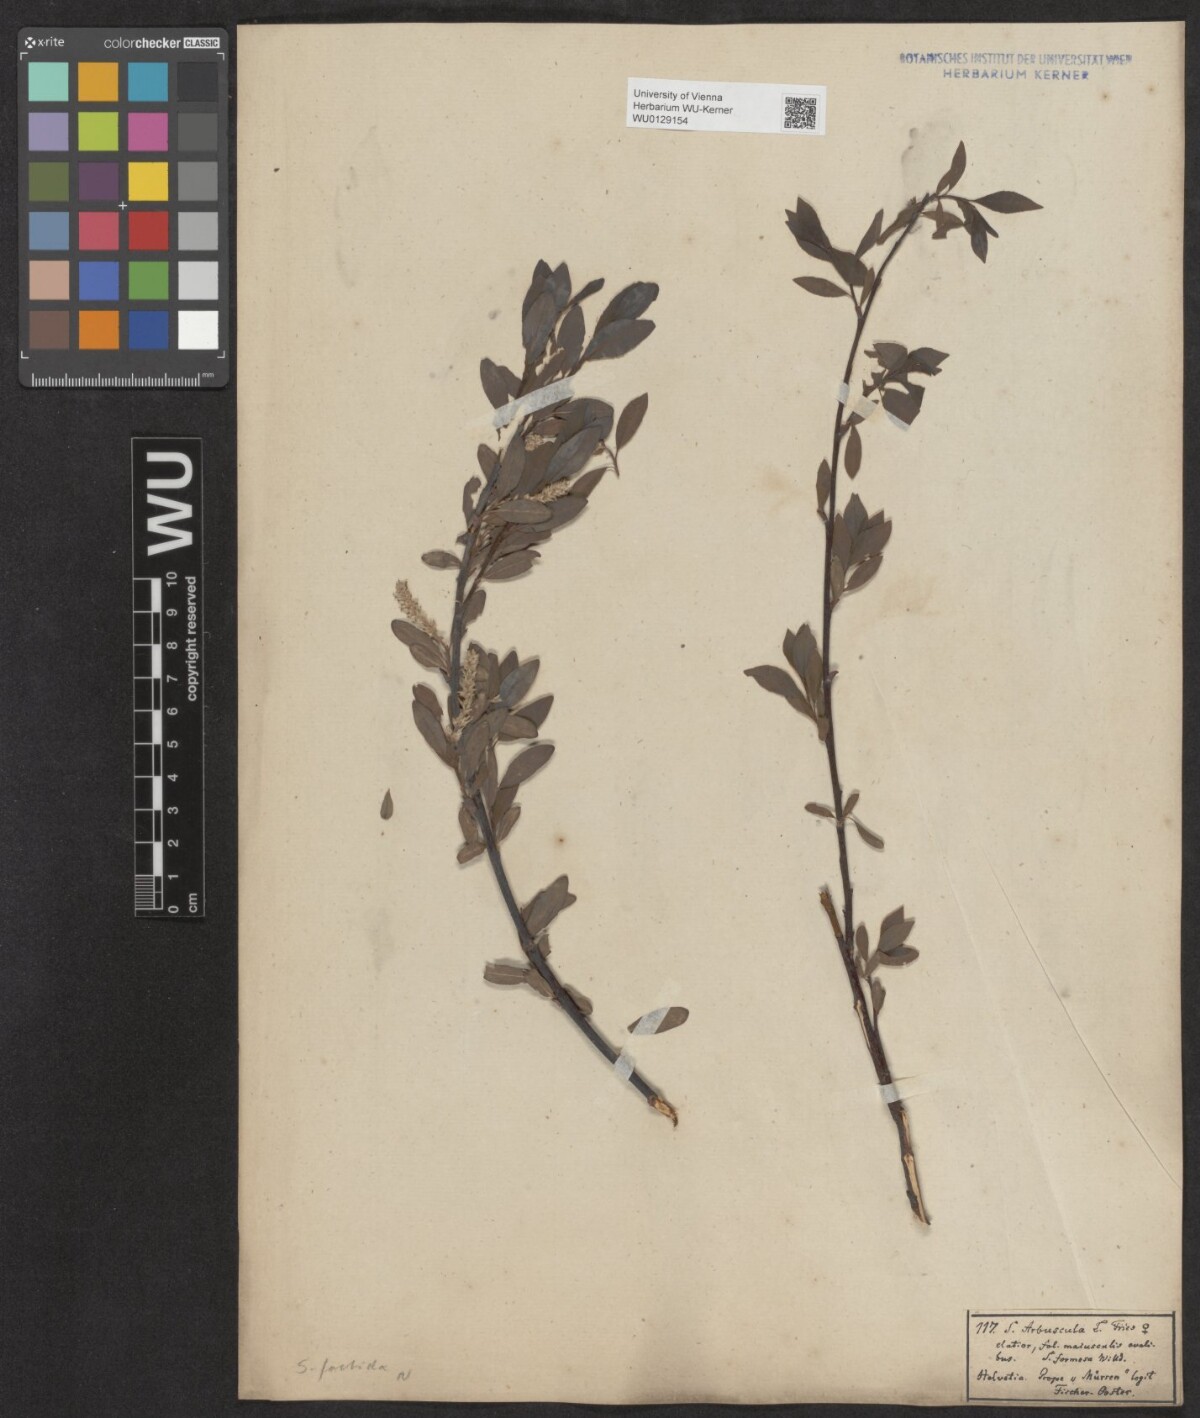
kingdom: Plantae
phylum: Tracheophyta
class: Magnoliopsida
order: Malpighiales
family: Salicaceae
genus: Salix
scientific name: Salix foetida
